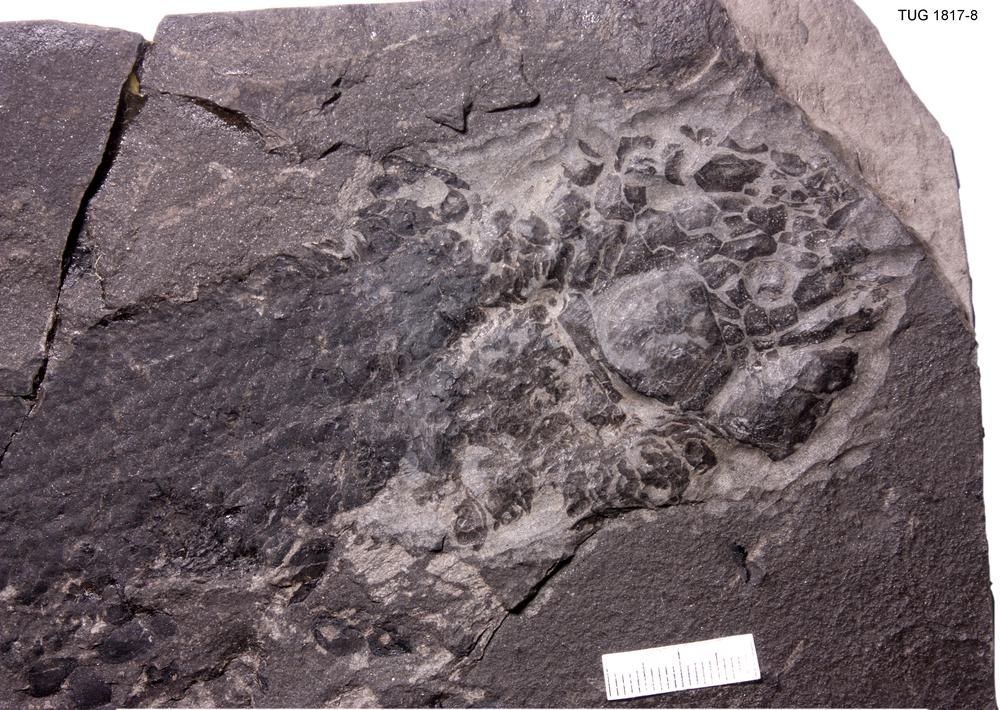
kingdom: Animalia
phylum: Chordata
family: Dipteridae
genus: Dipterus
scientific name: Dipterus valenciennesi
